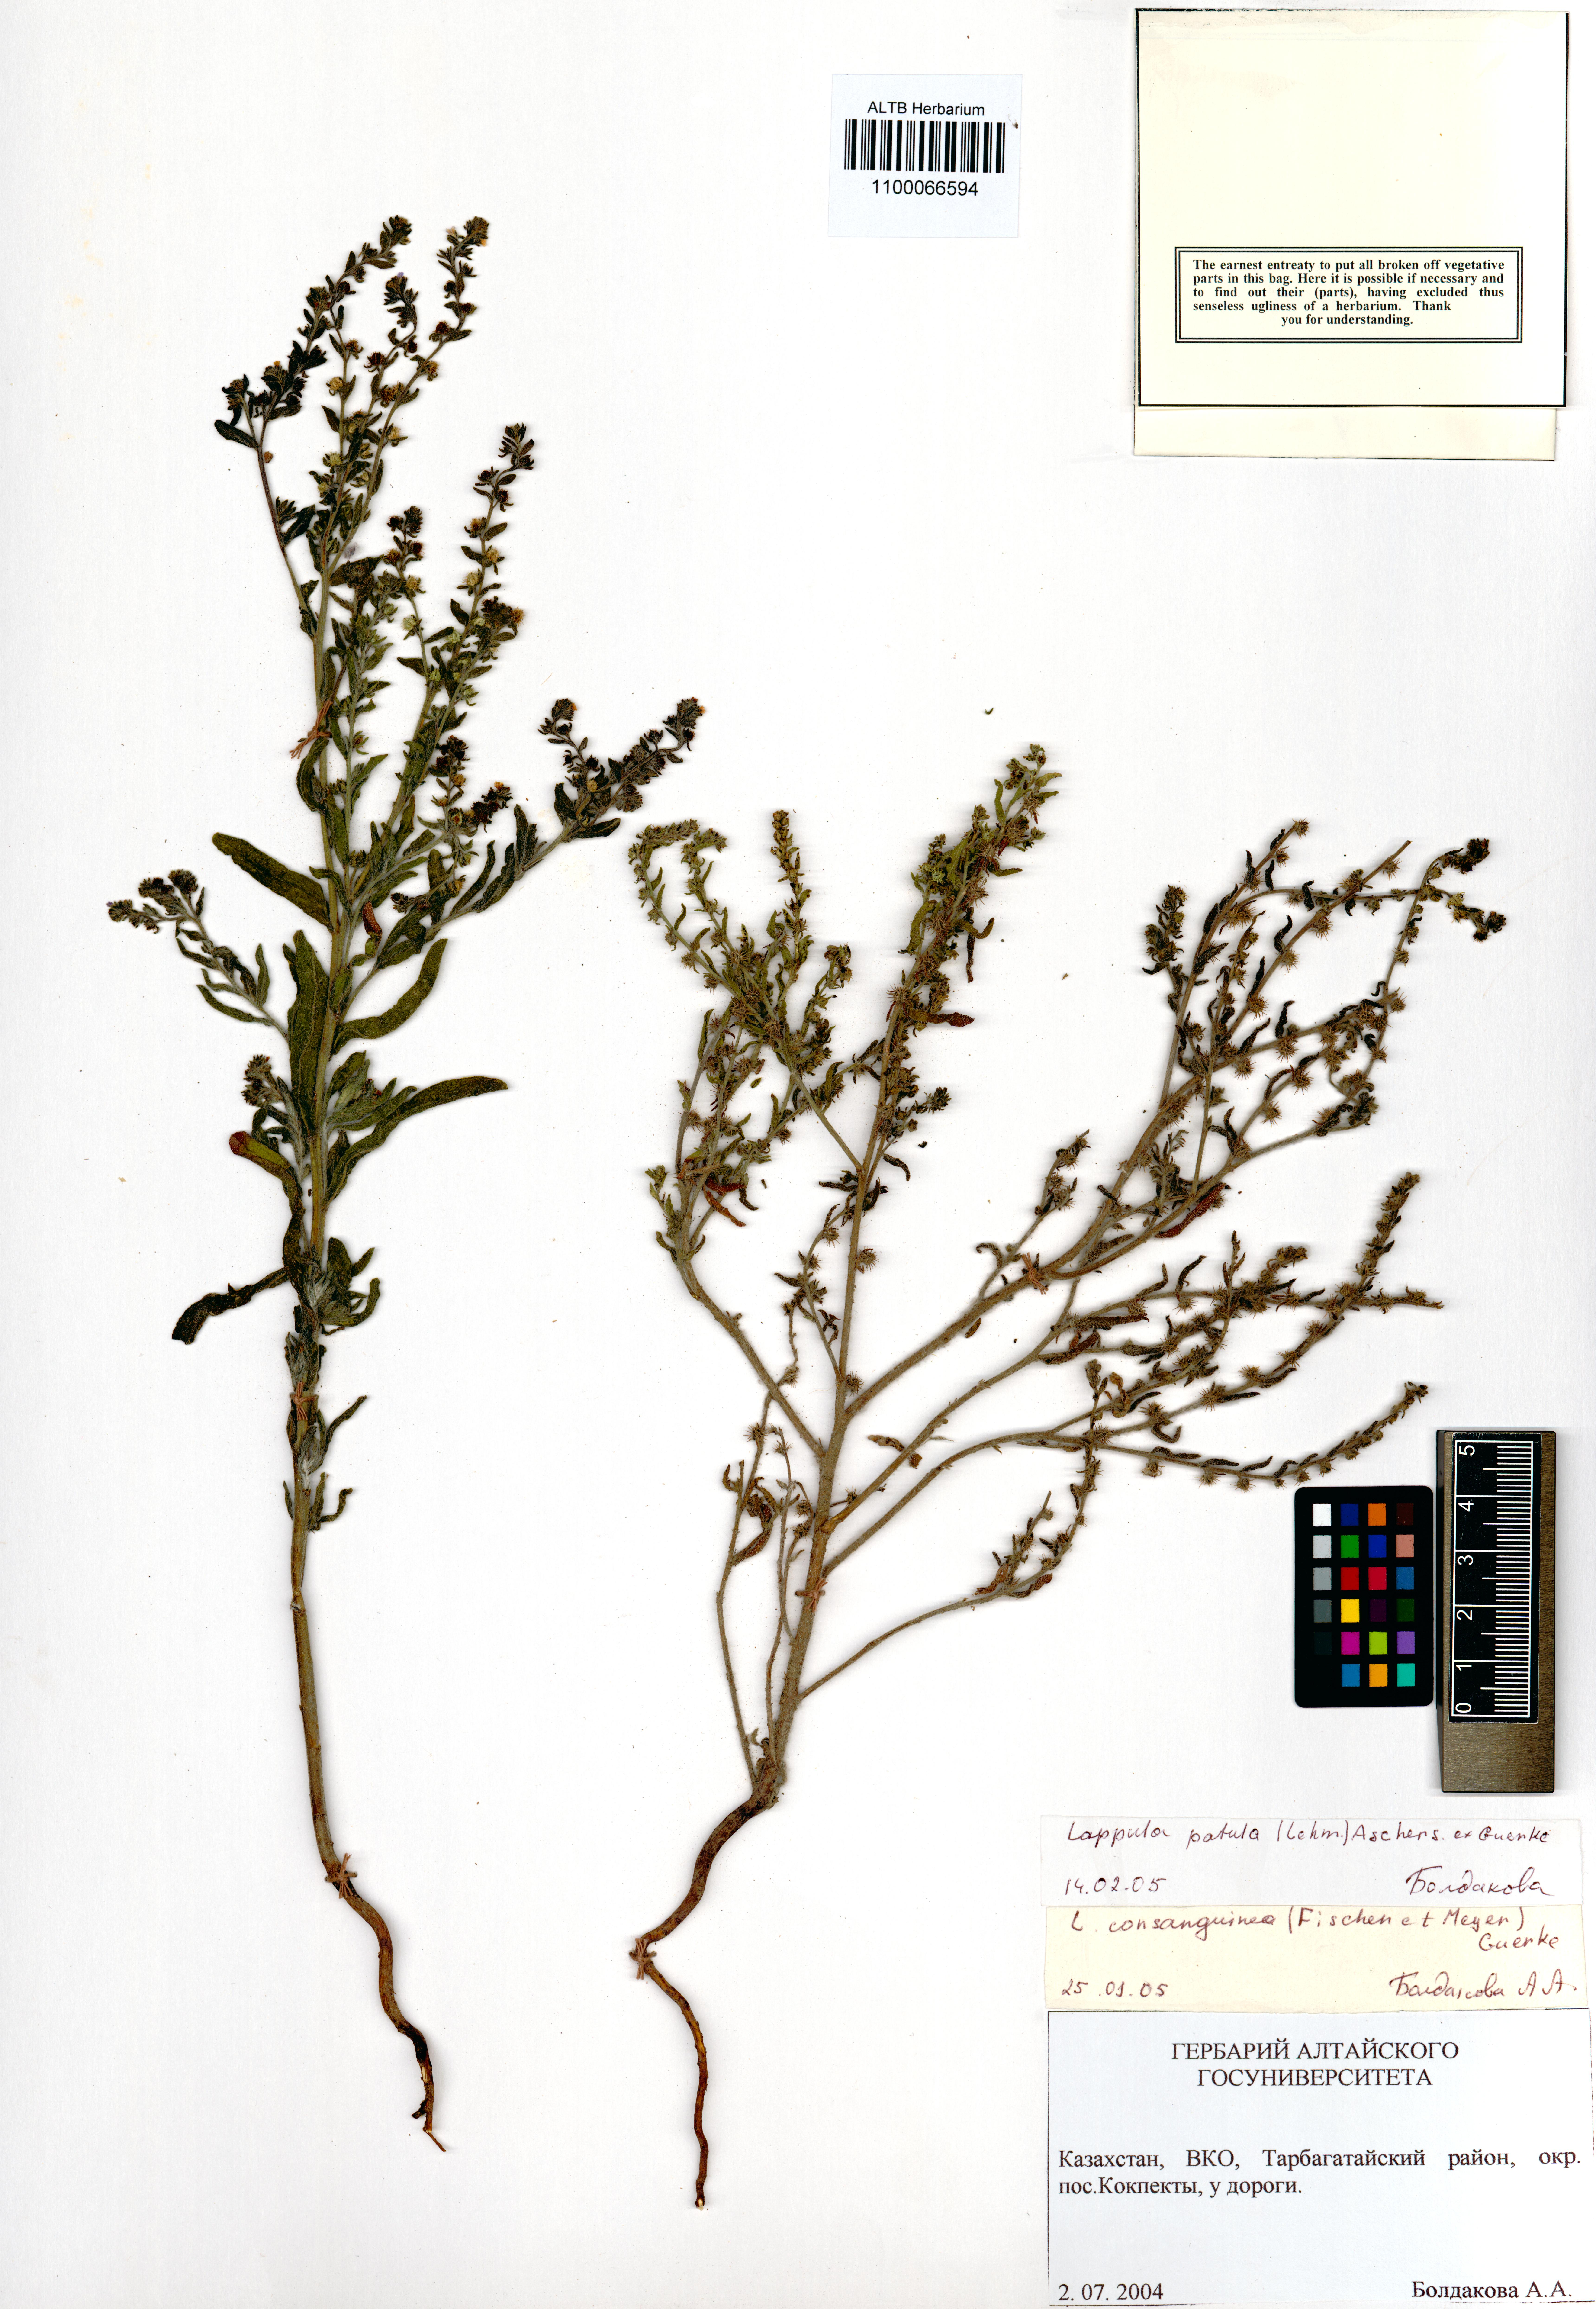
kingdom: Plantae
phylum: Tracheophyta
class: Magnoliopsida
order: Boraginales
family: Boraginaceae
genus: Lappula
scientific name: Lappula patula
